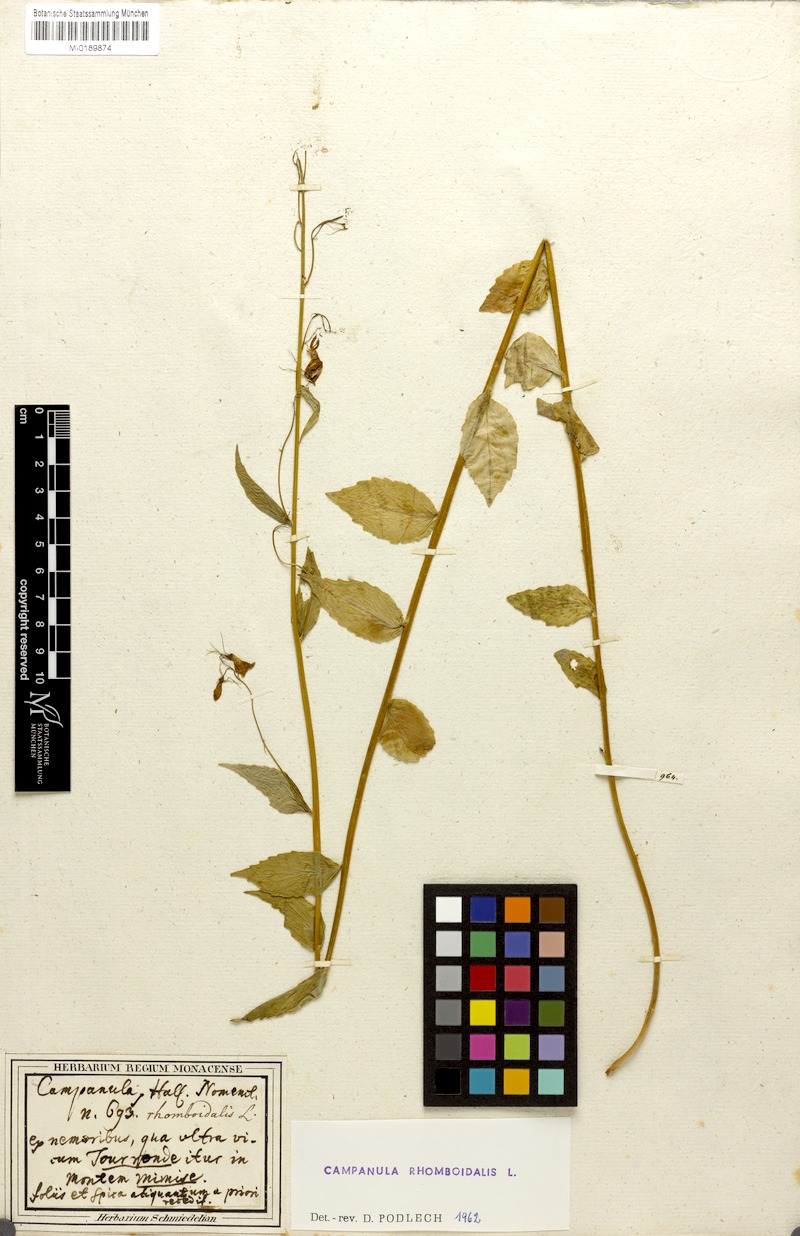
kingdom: Plantae
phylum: Tracheophyta
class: Magnoliopsida
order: Asterales
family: Campanulaceae
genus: Campanula
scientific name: Campanula rhomboidalis
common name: Broad-leaved harebell
